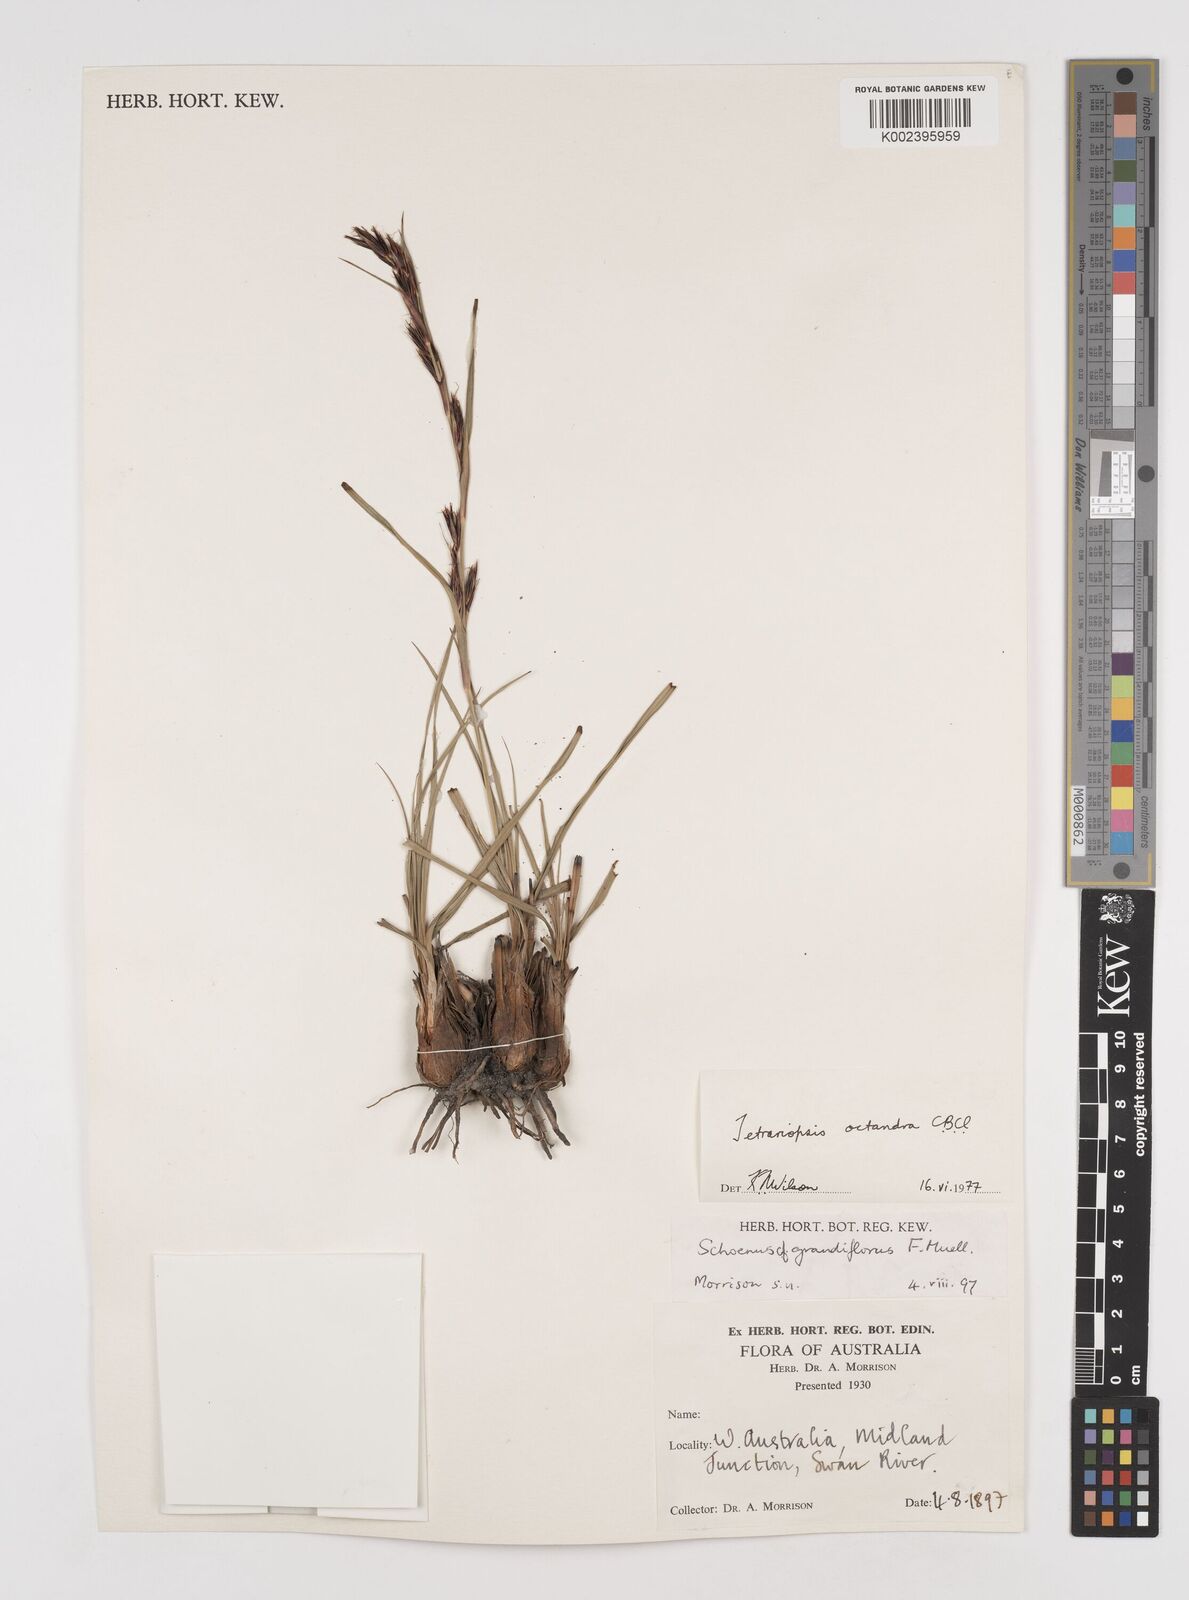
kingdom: Plantae
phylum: Tracheophyta
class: Liliopsida
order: Poales
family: Cyperaceae
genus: Tetraria
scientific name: Tetraria octandra
